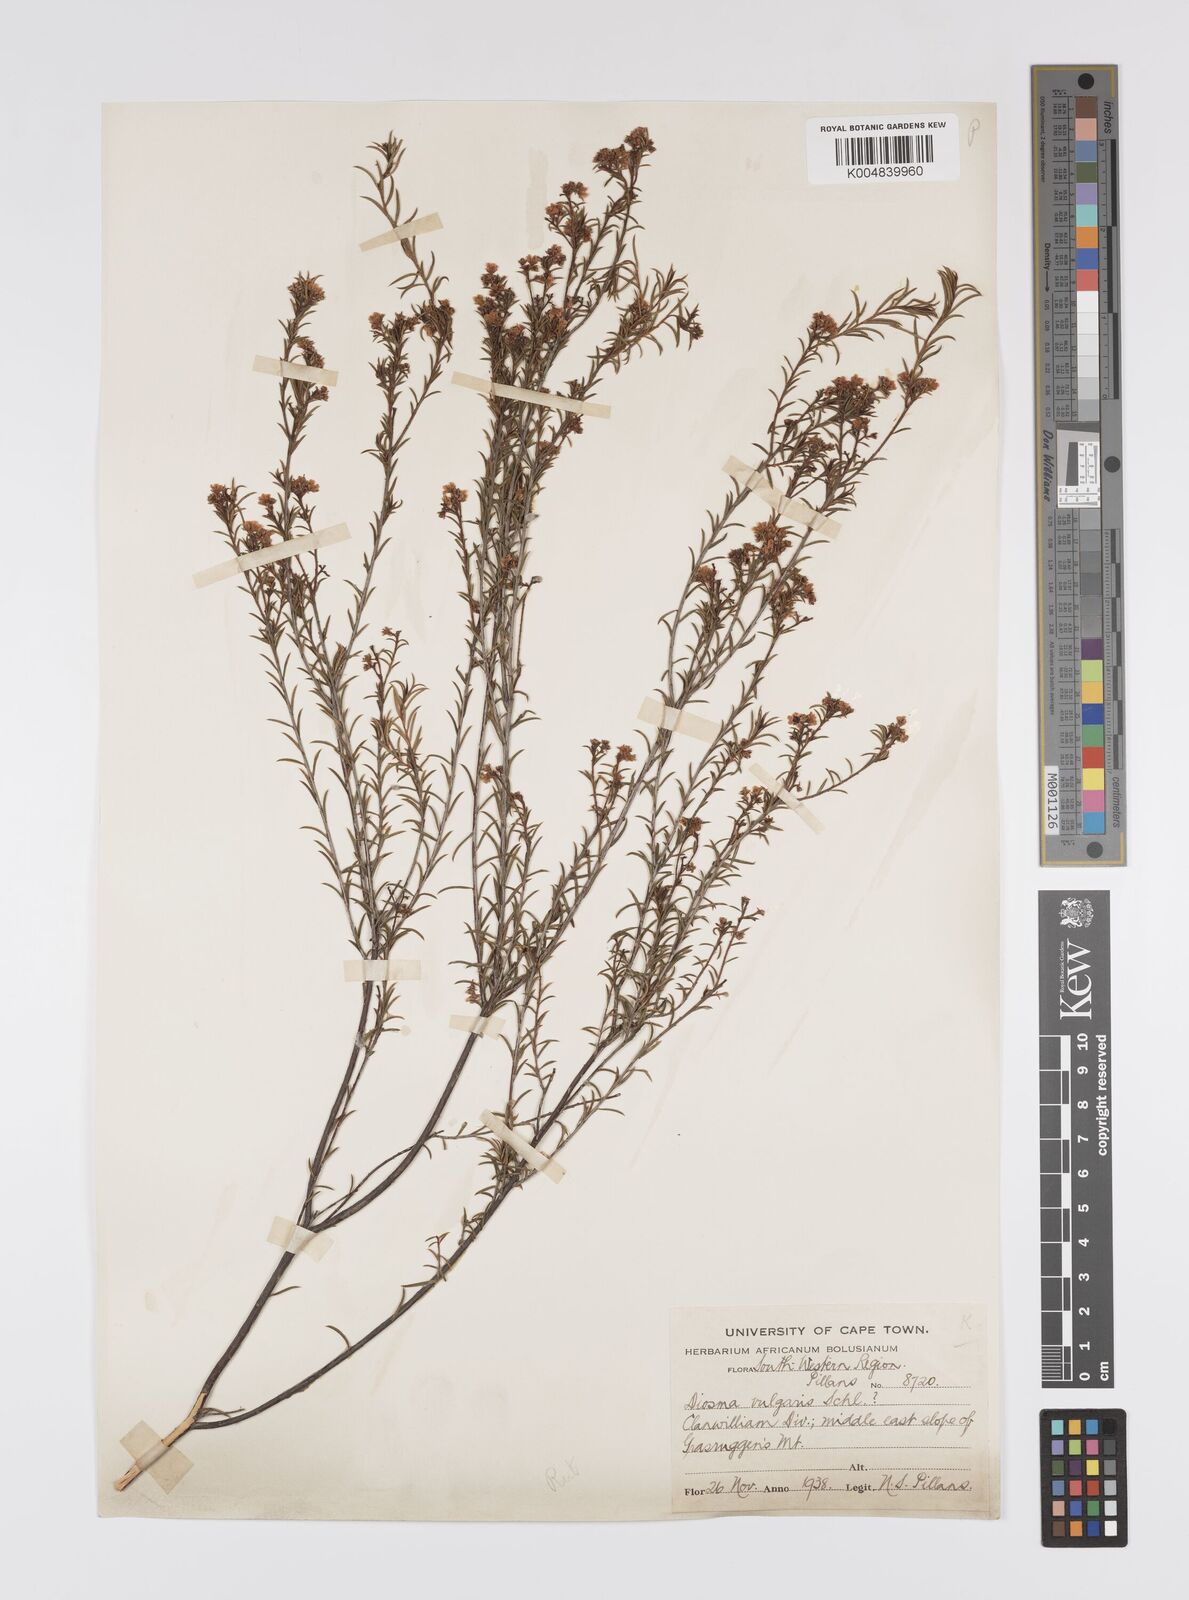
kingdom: Plantae
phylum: Tracheophyta
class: Magnoliopsida
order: Sapindales
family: Rutaceae
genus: Diosma
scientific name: Diosma acmaeophylla
